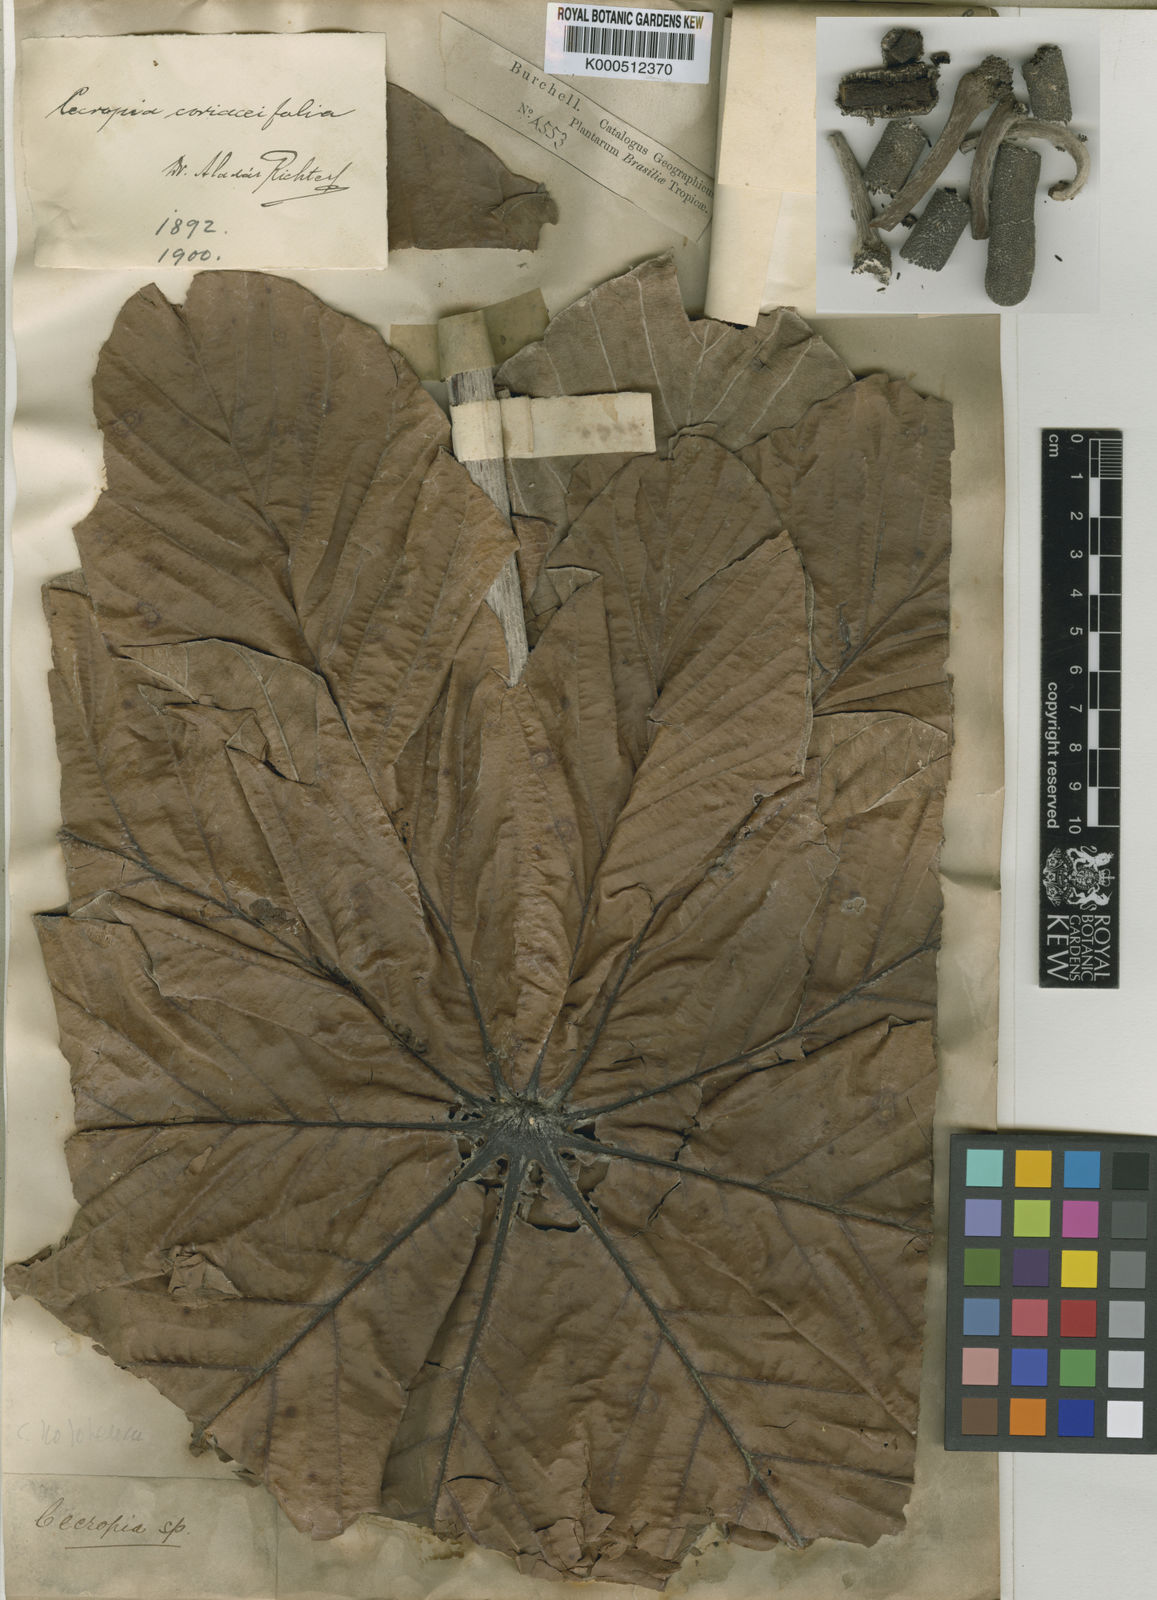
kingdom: Plantae
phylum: Tracheophyta
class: Magnoliopsida
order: Rosales
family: Urticaceae
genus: Cecropia
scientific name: Cecropia hololeuca
